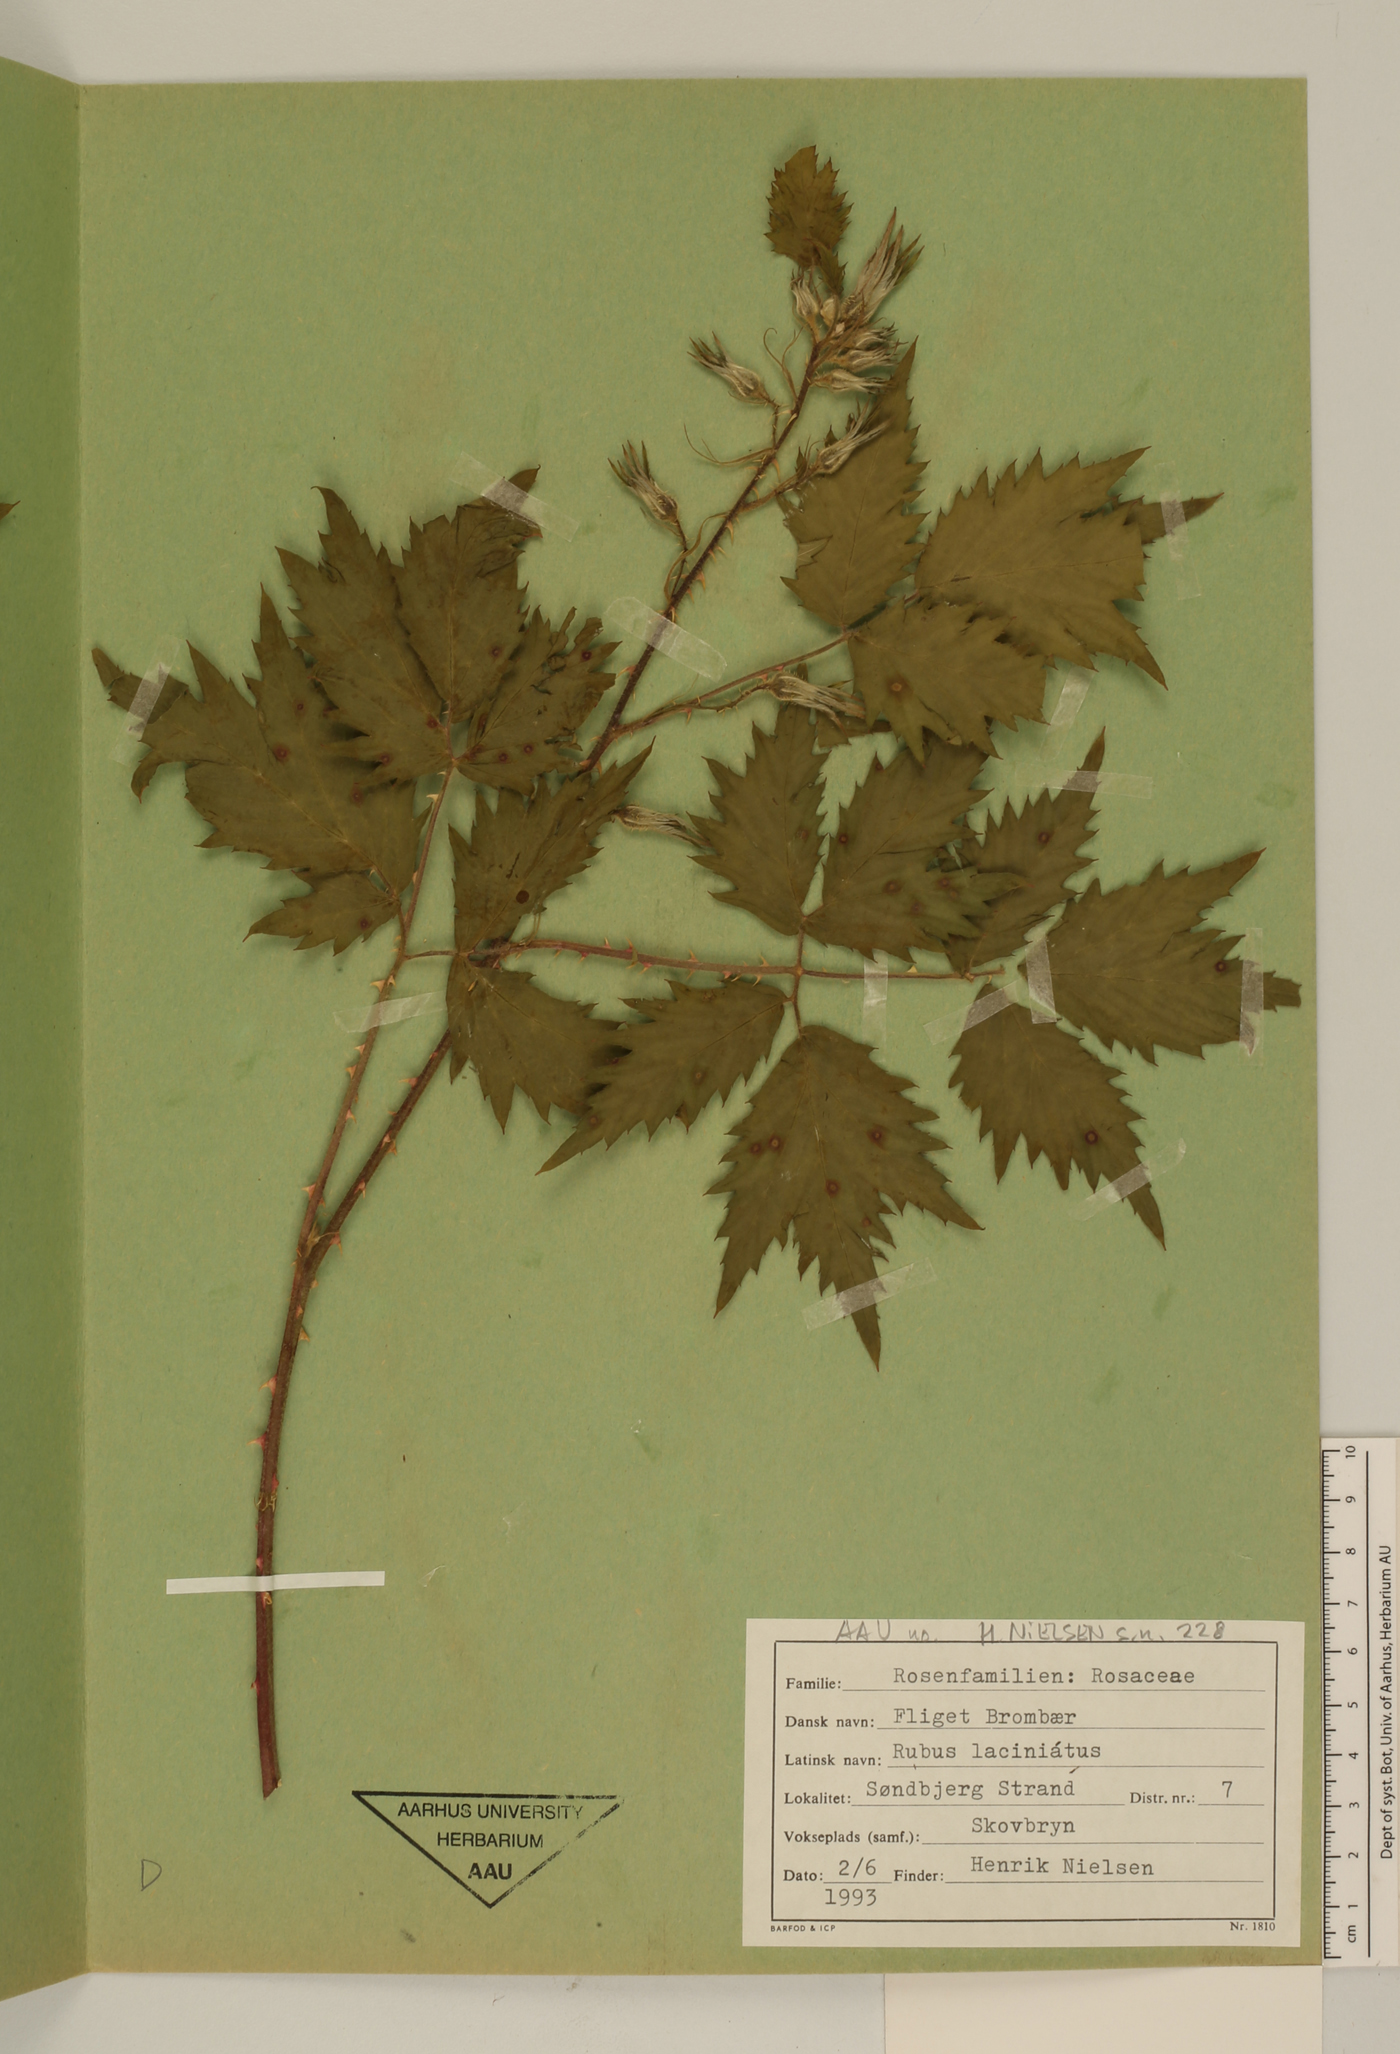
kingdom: Plantae
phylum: Tracheophyta
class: Magnoliopsida
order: Rosales
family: Rosaceae
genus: Rubus
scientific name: Rubus laciniatus
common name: Evergreen blackberry
